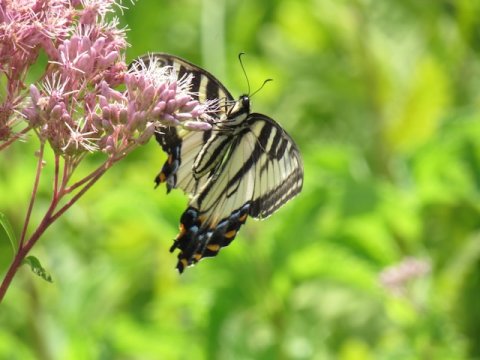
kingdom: Animalia
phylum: Arthropoda
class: Insecta
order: Lepidoptera
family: Papilionidae
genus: Pterourus
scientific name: Pterourus
